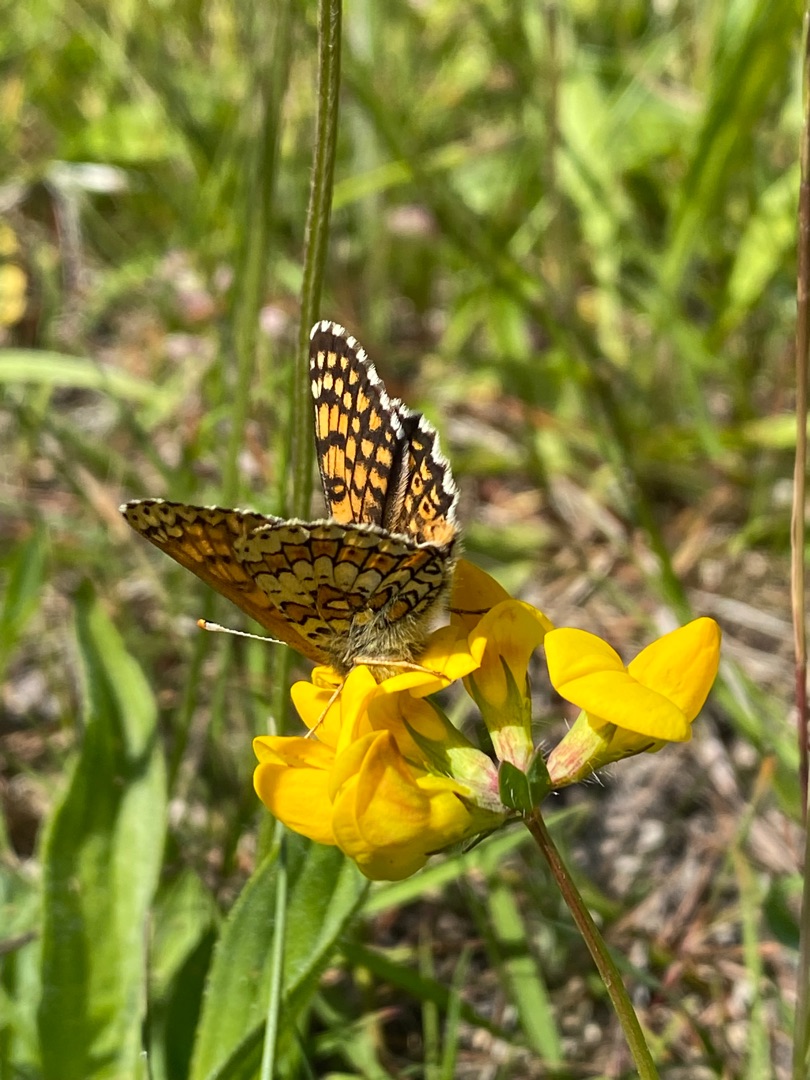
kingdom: Animalia
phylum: Arthropoda
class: Insecta
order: Lepidoptera
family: Nymphalidae
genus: Melitaea
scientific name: Melitaea cinxia
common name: Okkergul pletvinge
